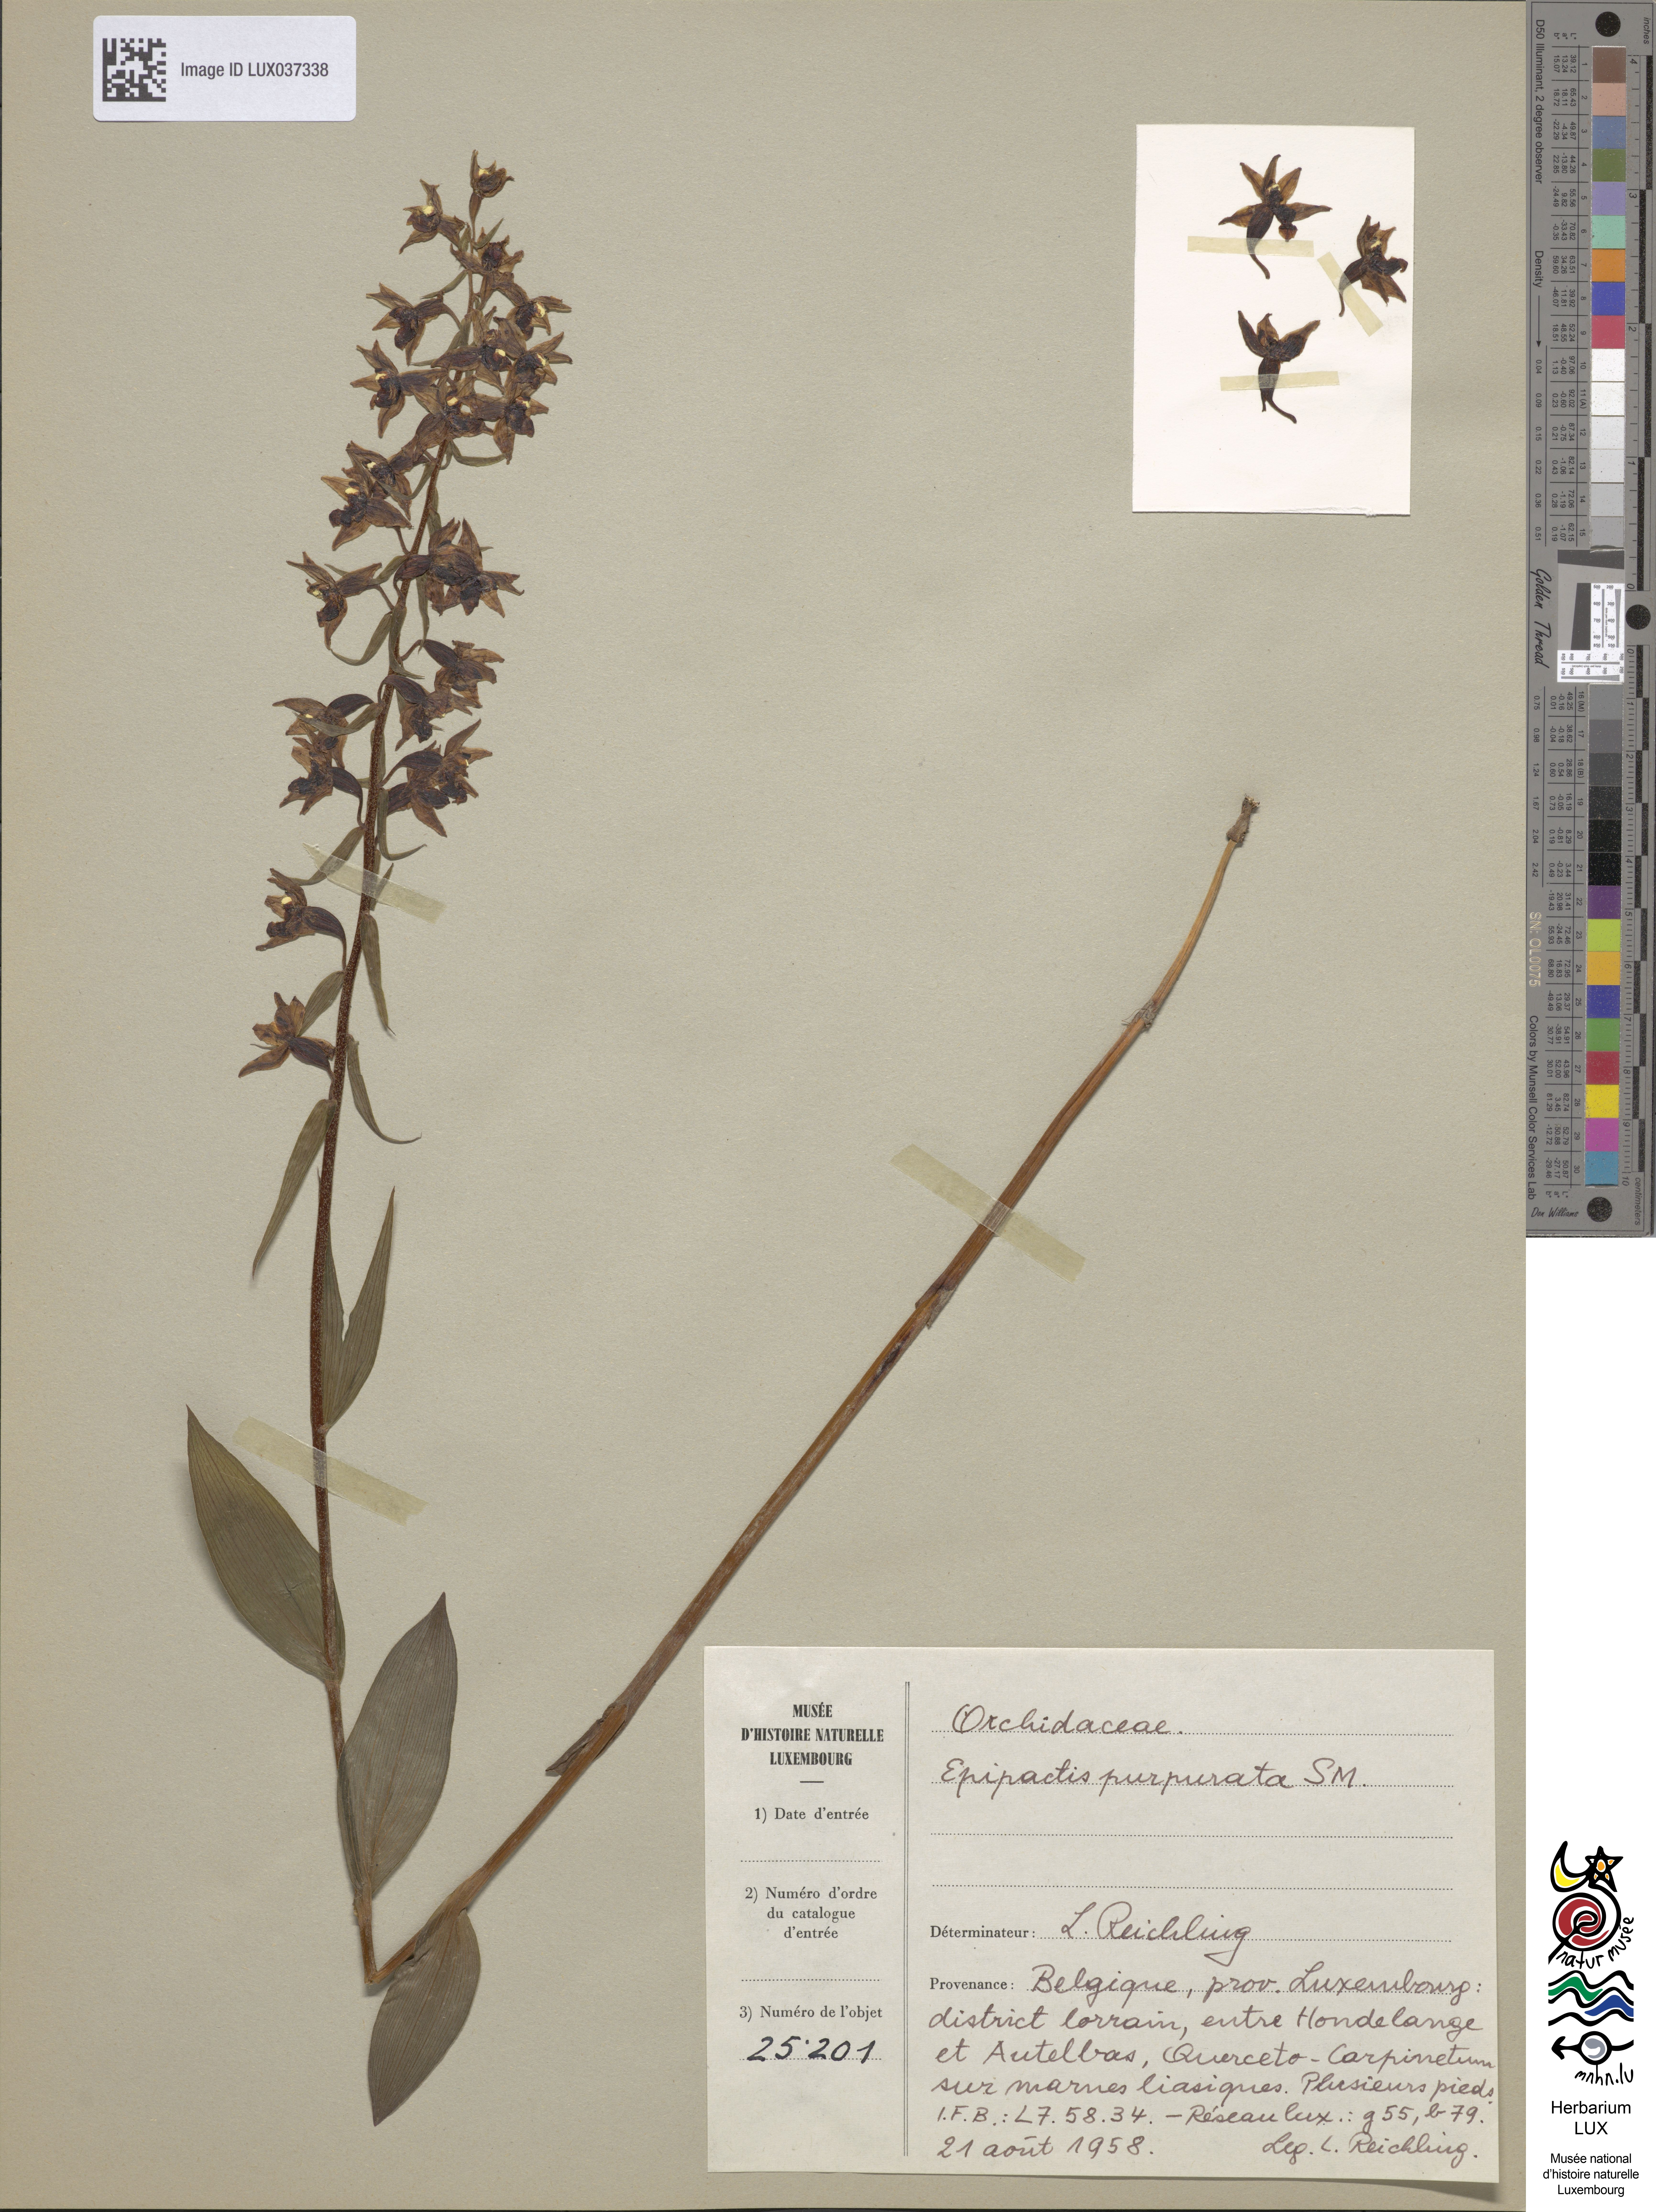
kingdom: Plantae
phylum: Tracheophyta
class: Liliopsida
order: Asparagales
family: Orchidaceae
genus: Epipactis
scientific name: Epipactis purpurata
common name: Violet helleborine
